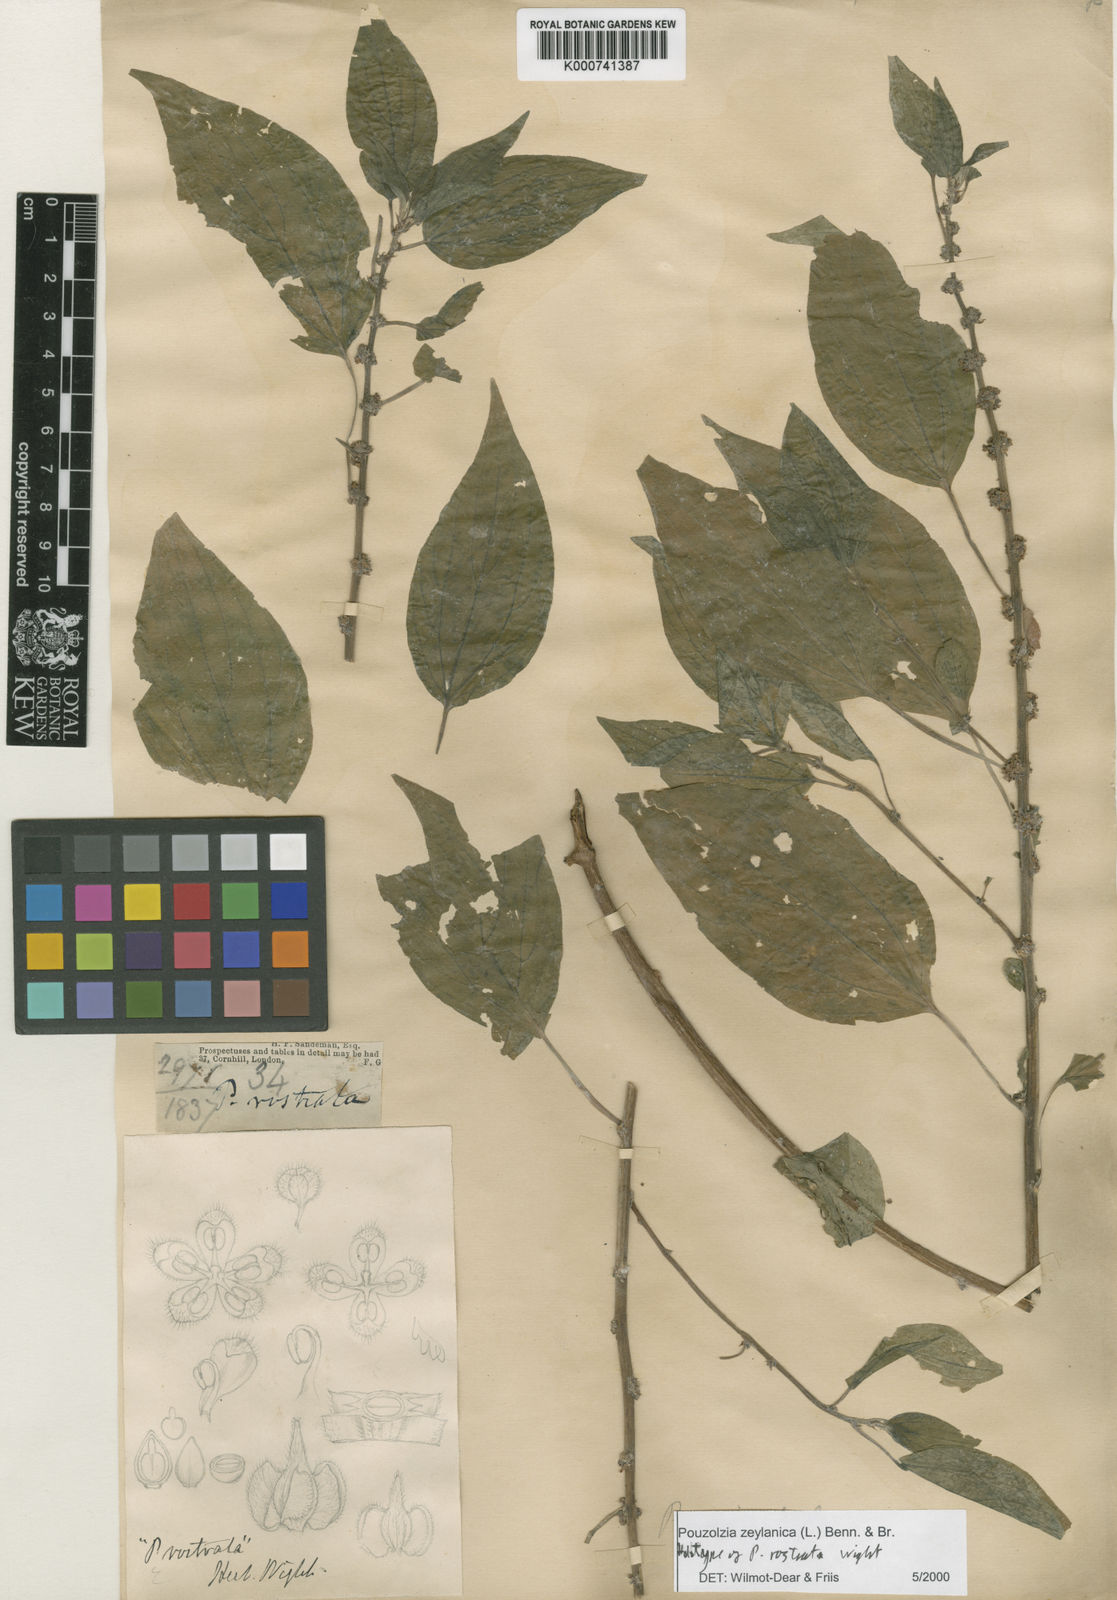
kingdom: Plantae
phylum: Tracheophyta
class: Magnoliopsida
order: Rosales
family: Urticaceae
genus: Pouzolzia
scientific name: Pouzolzia zeylanica
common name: Graceful pouzolzsbush
